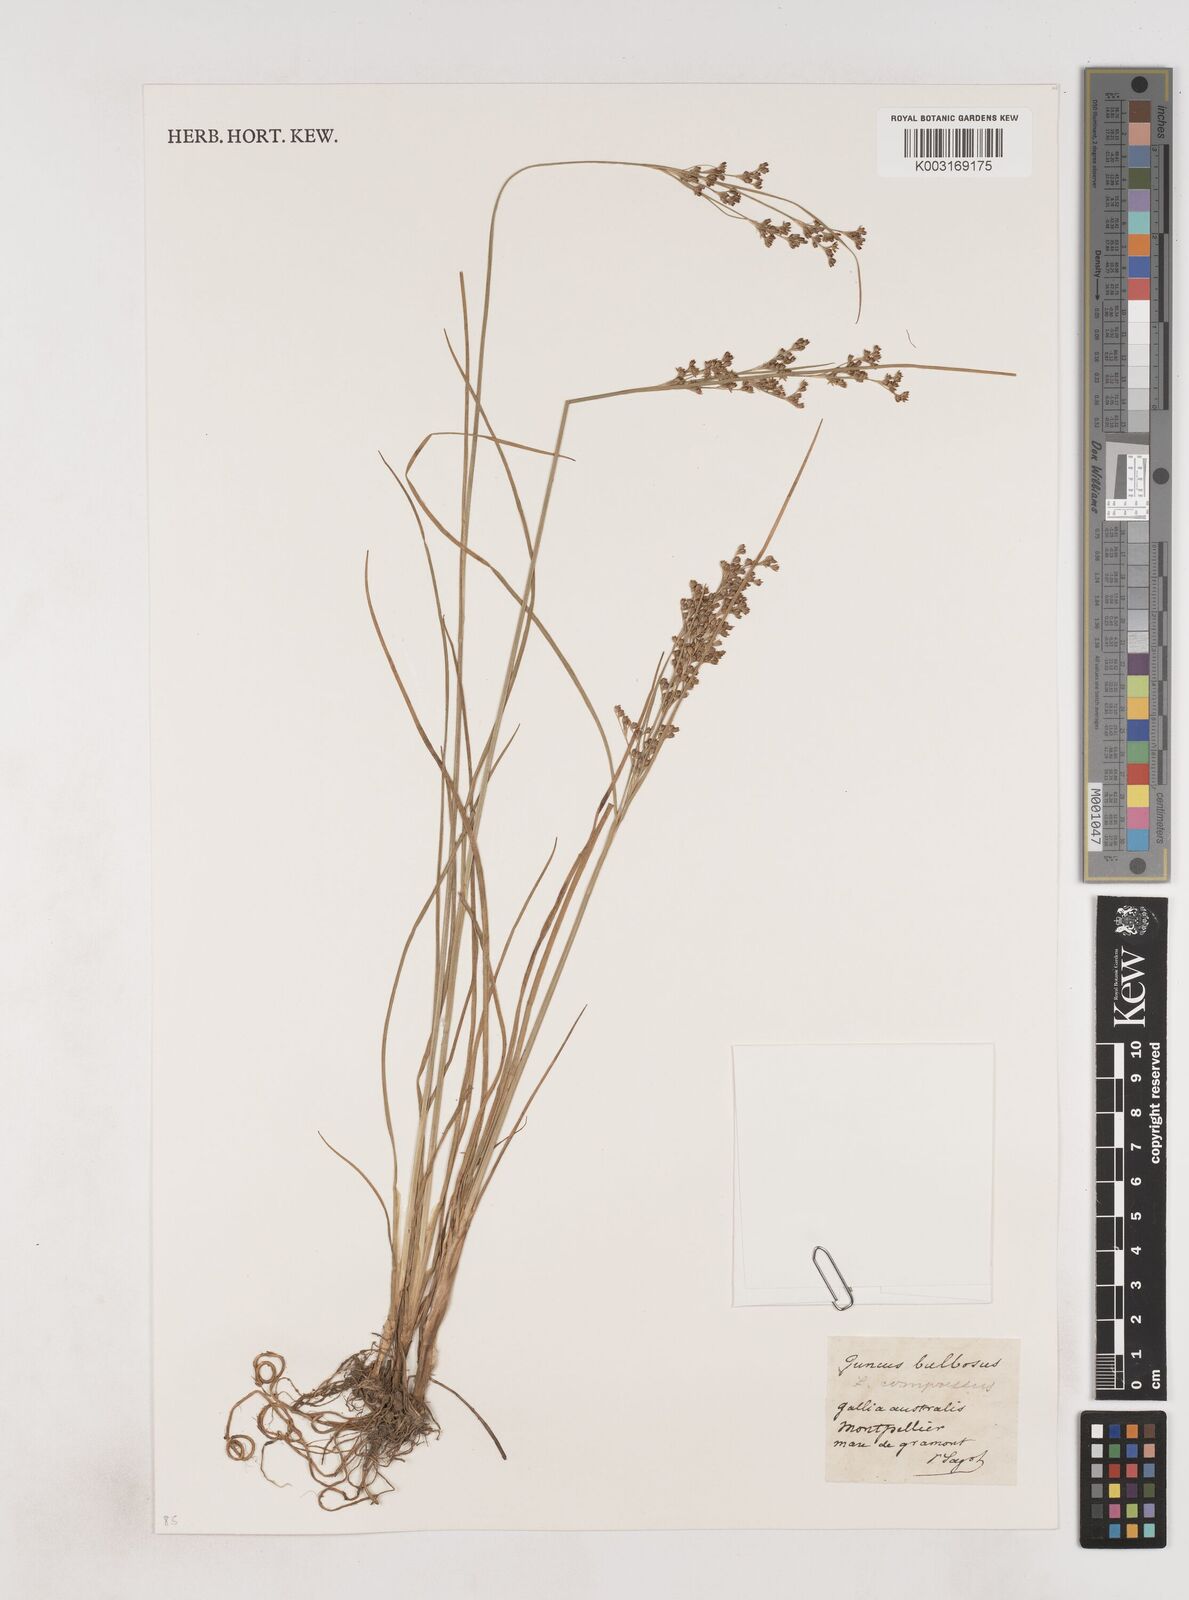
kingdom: Plantae
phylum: Tracheophyta
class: Liliopsida
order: Poales
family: Juncaceae
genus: Juncus
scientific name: Juncus bulbosus
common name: Bulbous rush
